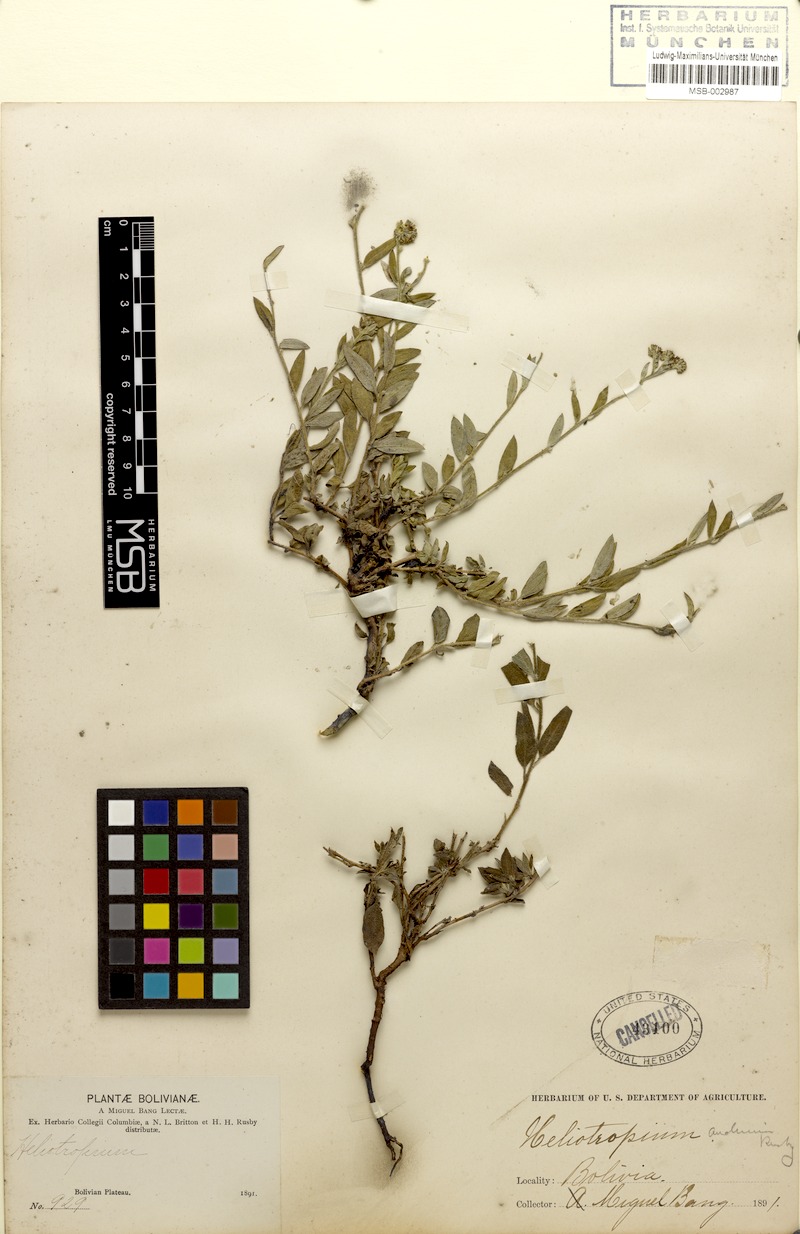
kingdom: Plantae
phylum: Tracheophyta
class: Magnoliopsida
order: Boraginales
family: Heliotropiaceae
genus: Euploca
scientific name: Euploca campestris
